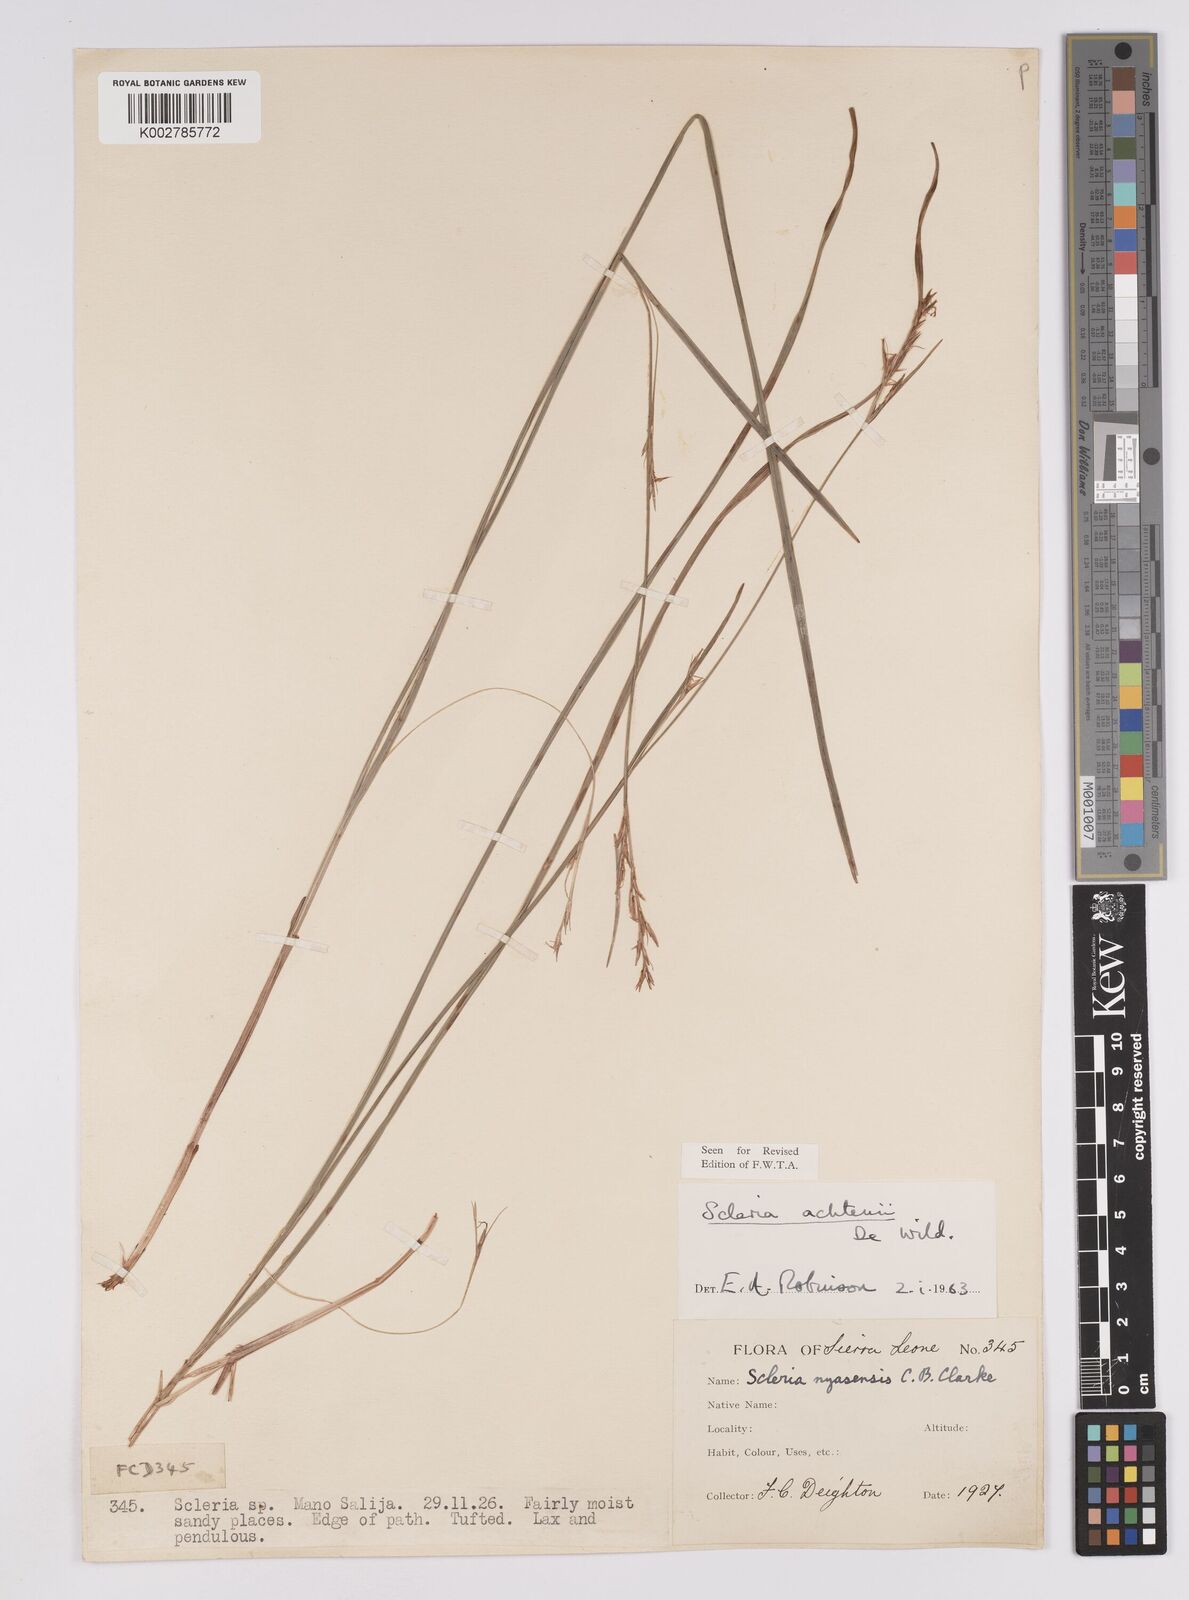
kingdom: Plantae
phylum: Tracheophyta
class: Liliopsida
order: Poales
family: Cyperaceae
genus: Scleria
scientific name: Scleria achtenii
